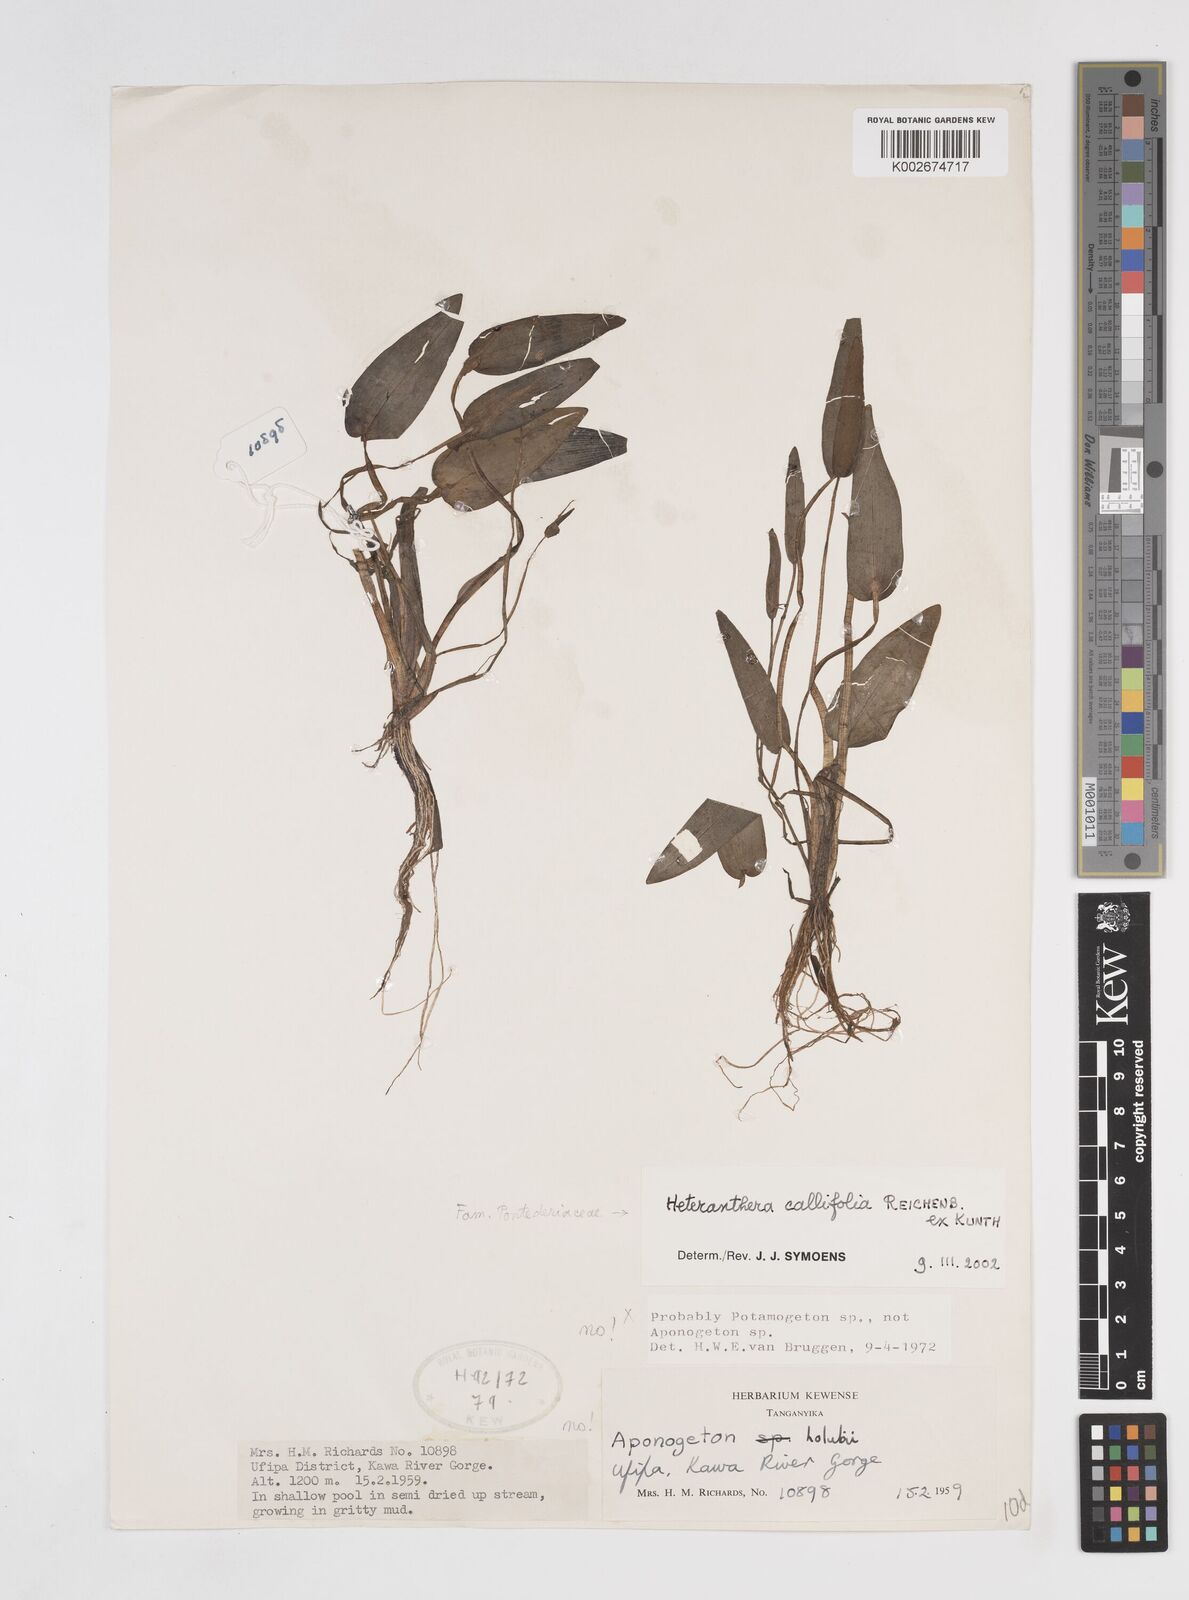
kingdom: Plantae
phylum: Tracheophyta
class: Liliopsida
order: Commelinales
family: Pontederiaceae
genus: Heteranthera
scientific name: Heteranthera callifolia
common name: Mud plantain
